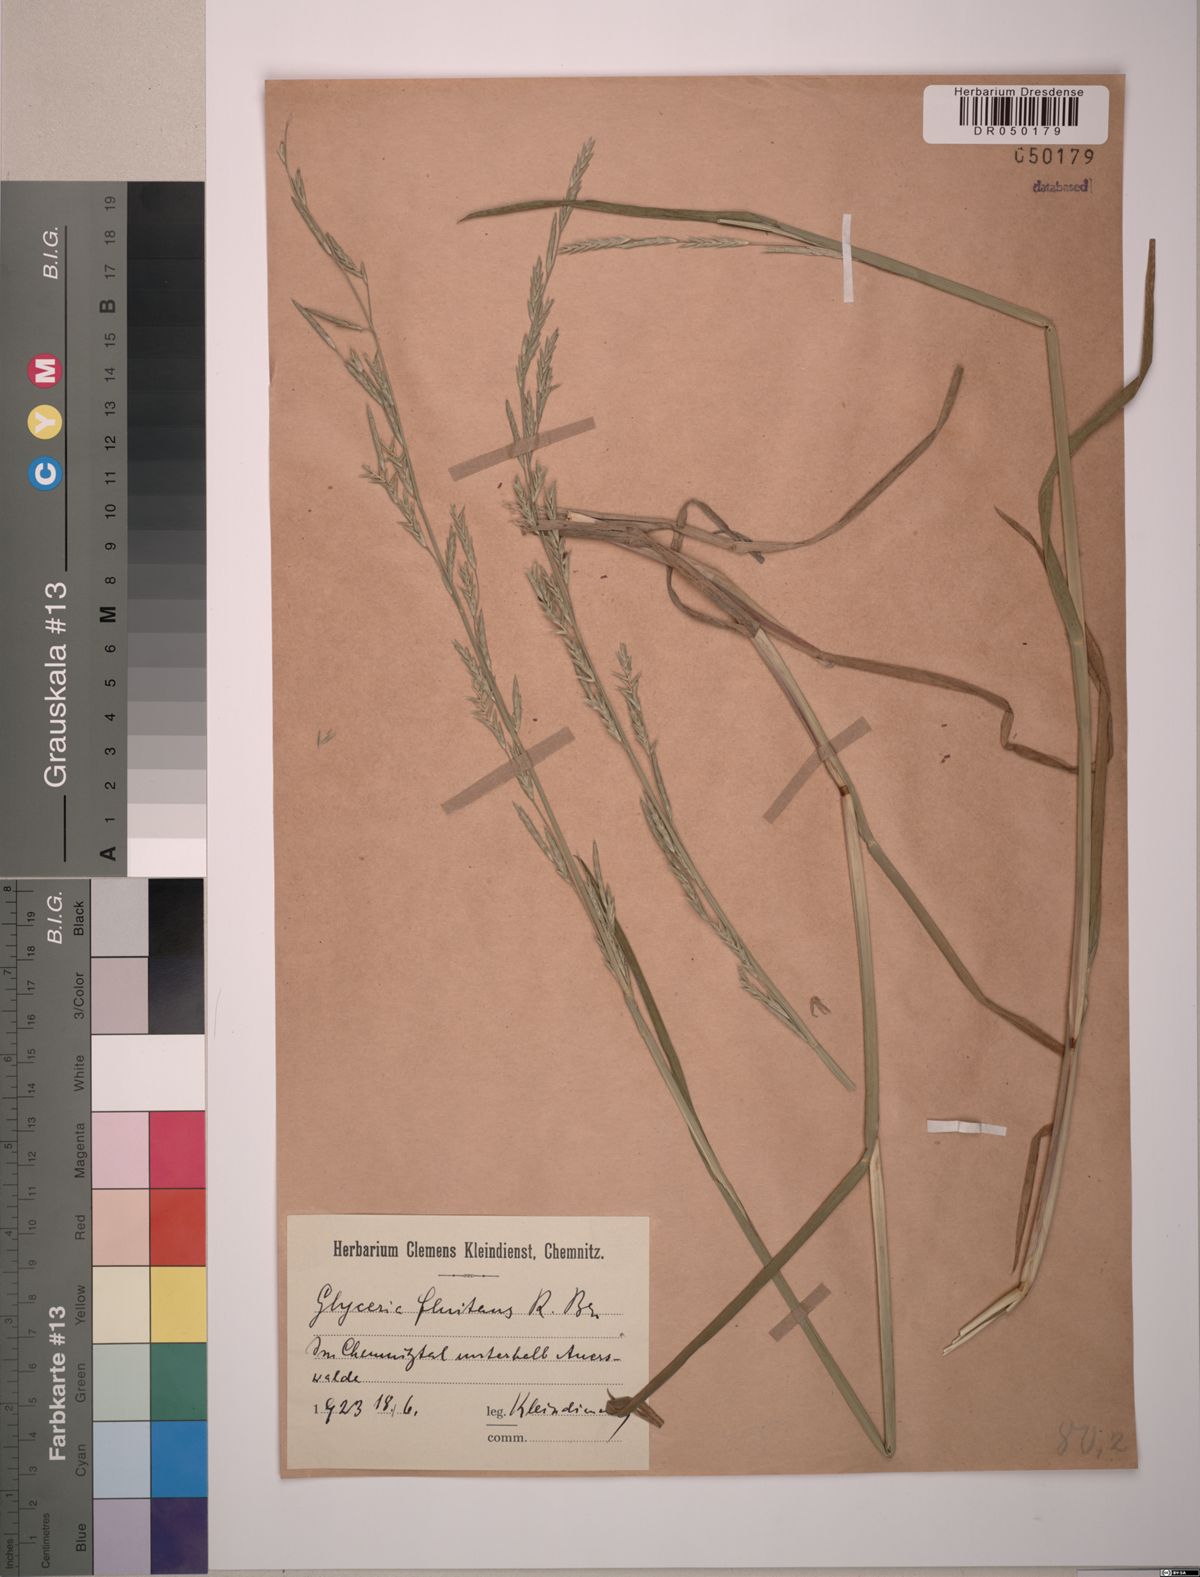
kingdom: Plantae
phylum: Tracheophyta
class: Liliopsida
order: Poales
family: Poaceae
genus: Glyceria
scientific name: Glyceria fluitans
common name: Floating sweet-grass
